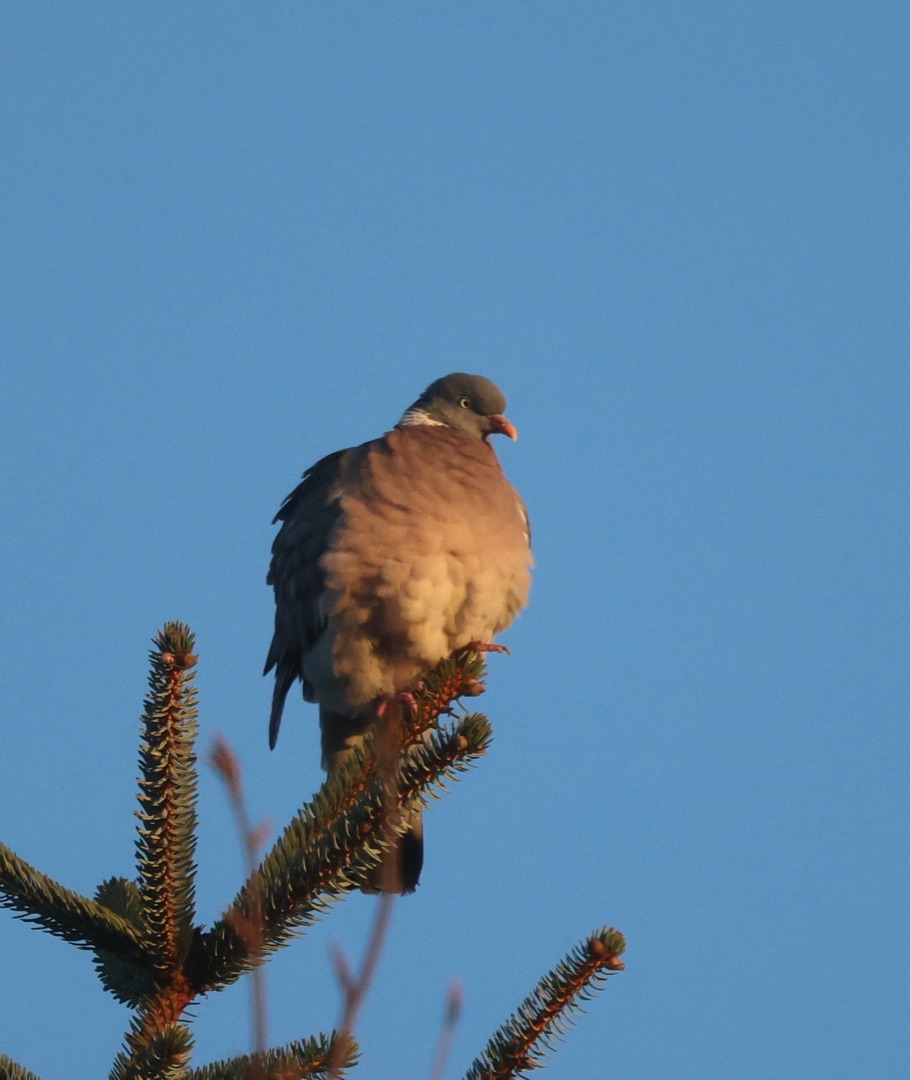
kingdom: Animalia
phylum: Chordata
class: Aves
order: Columbiformes
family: Columbidae
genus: Columba
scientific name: Columba palumbus
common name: Ringdue
